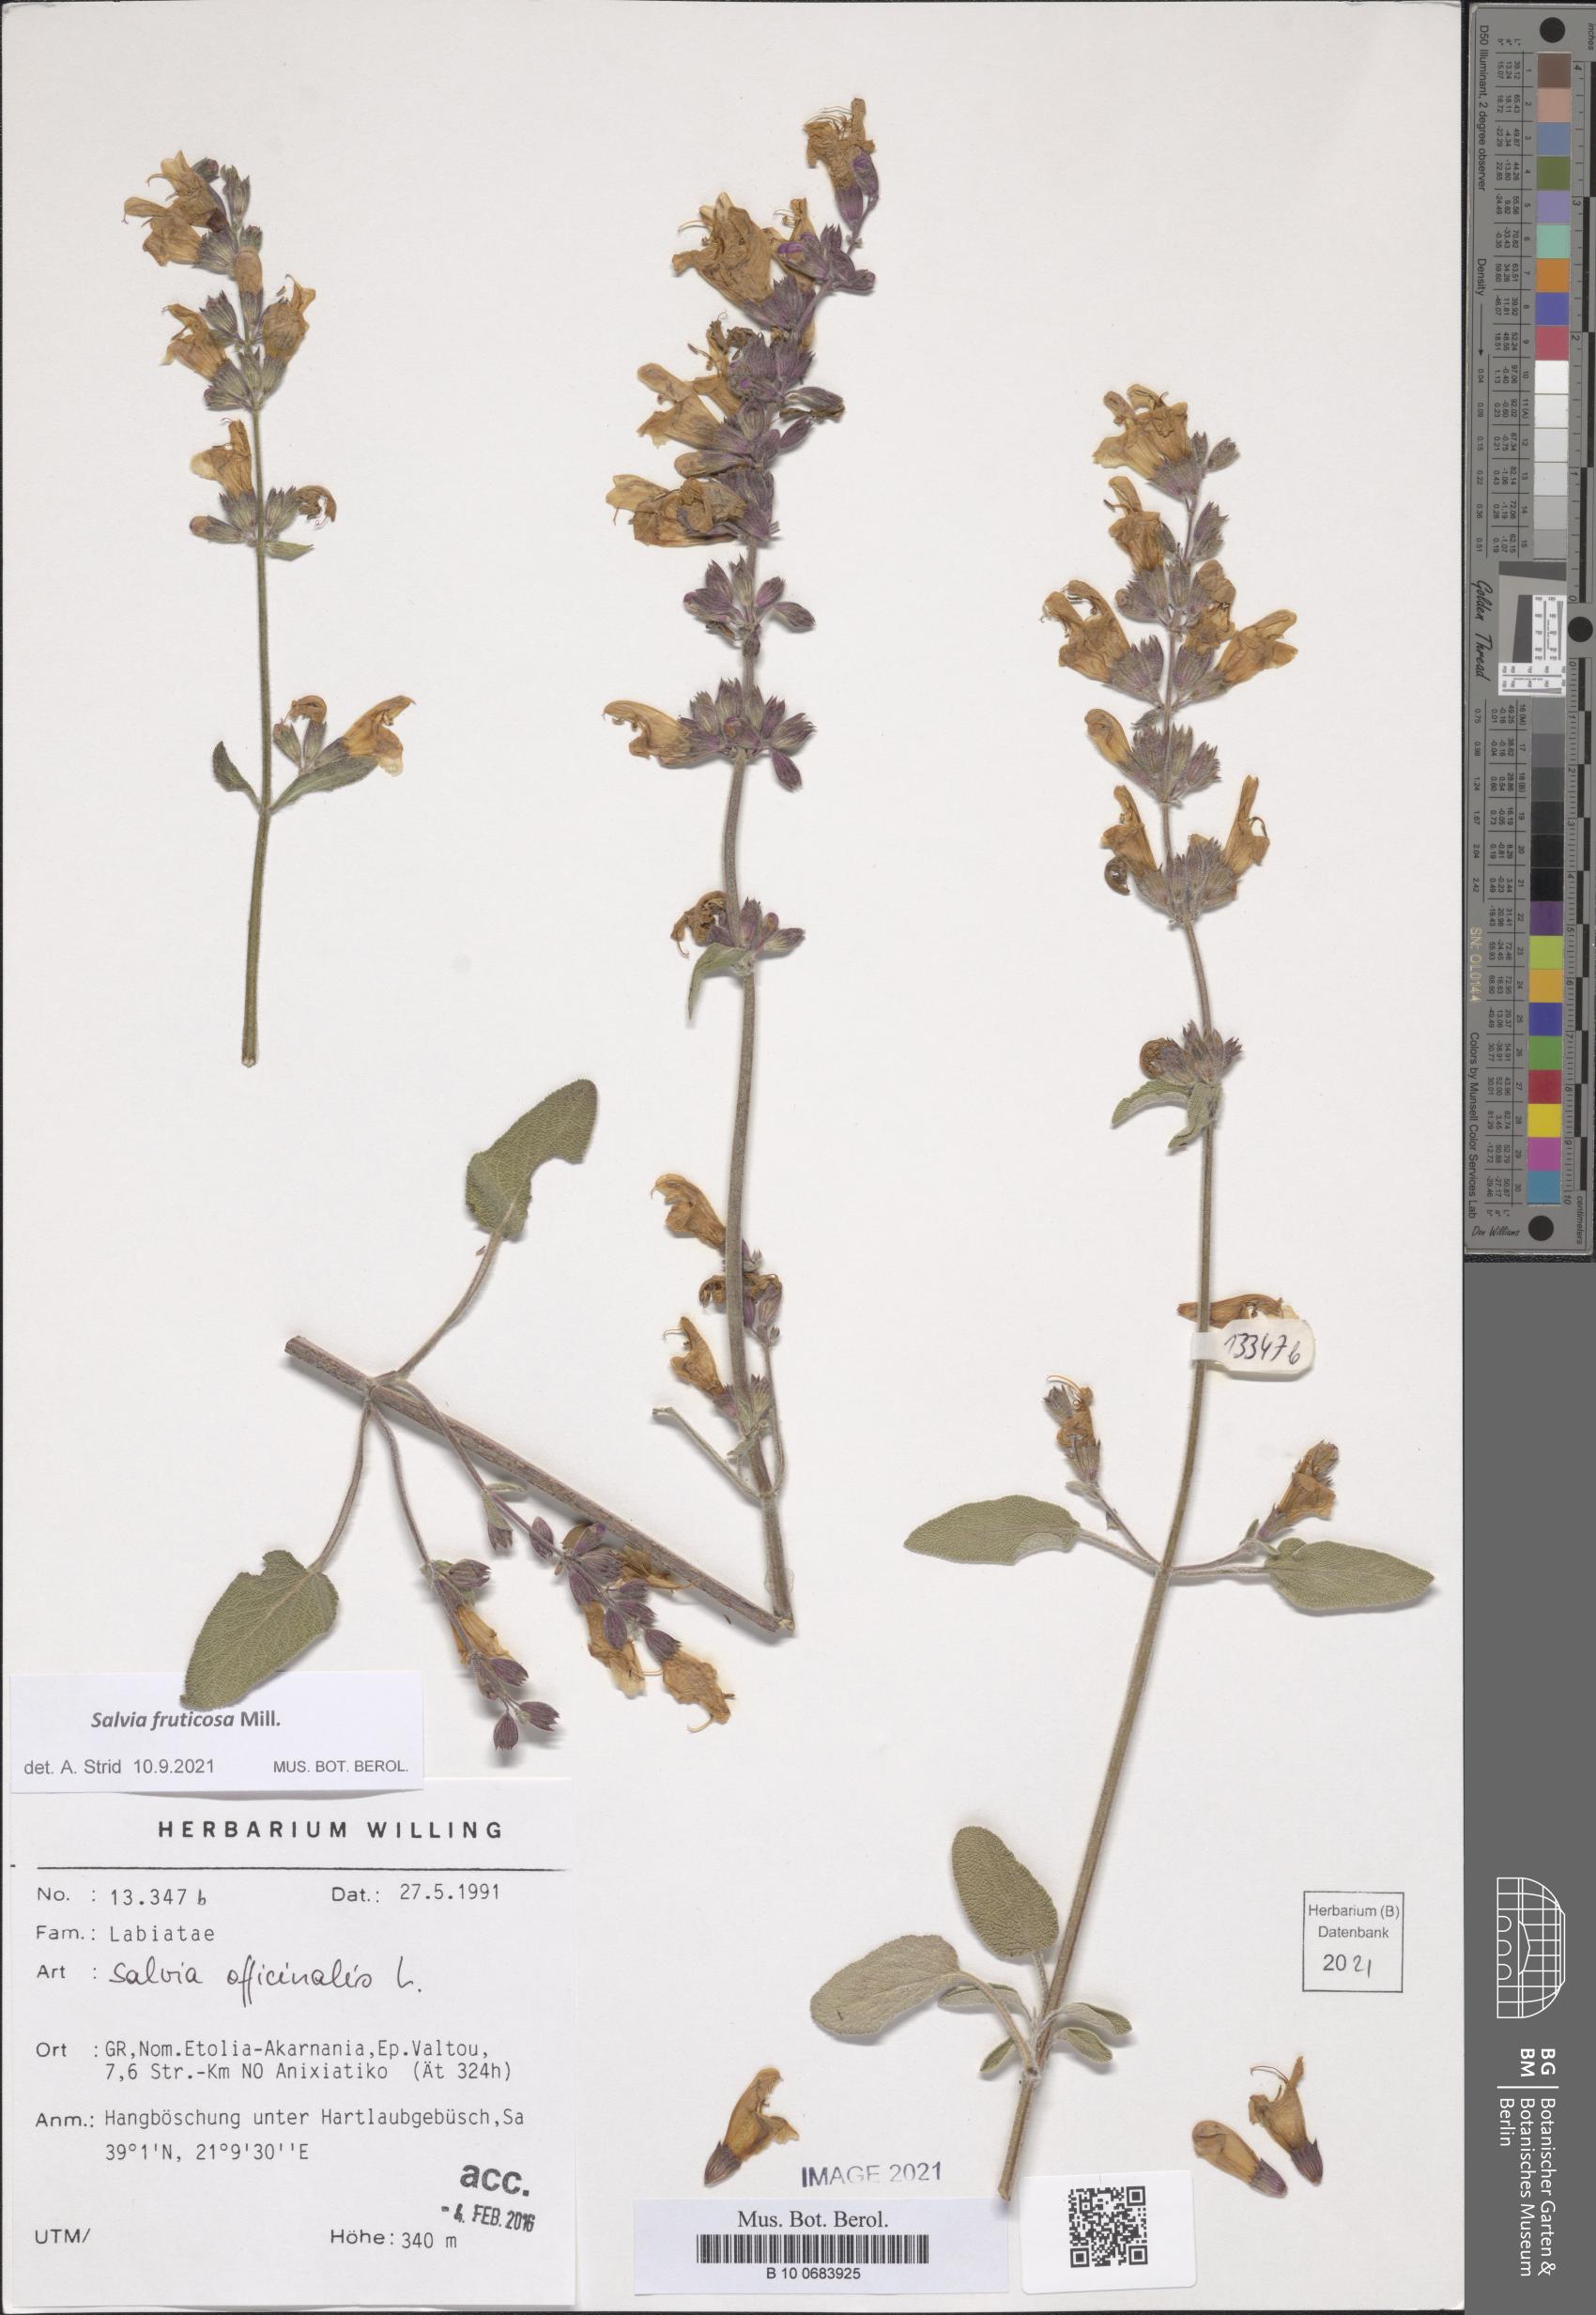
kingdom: Plantae
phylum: Tracheophyta
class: Magnoliopsida
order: Lamiales
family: Lamiaceae
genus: Salvia
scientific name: Salvia fruticosa
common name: Greek sage
